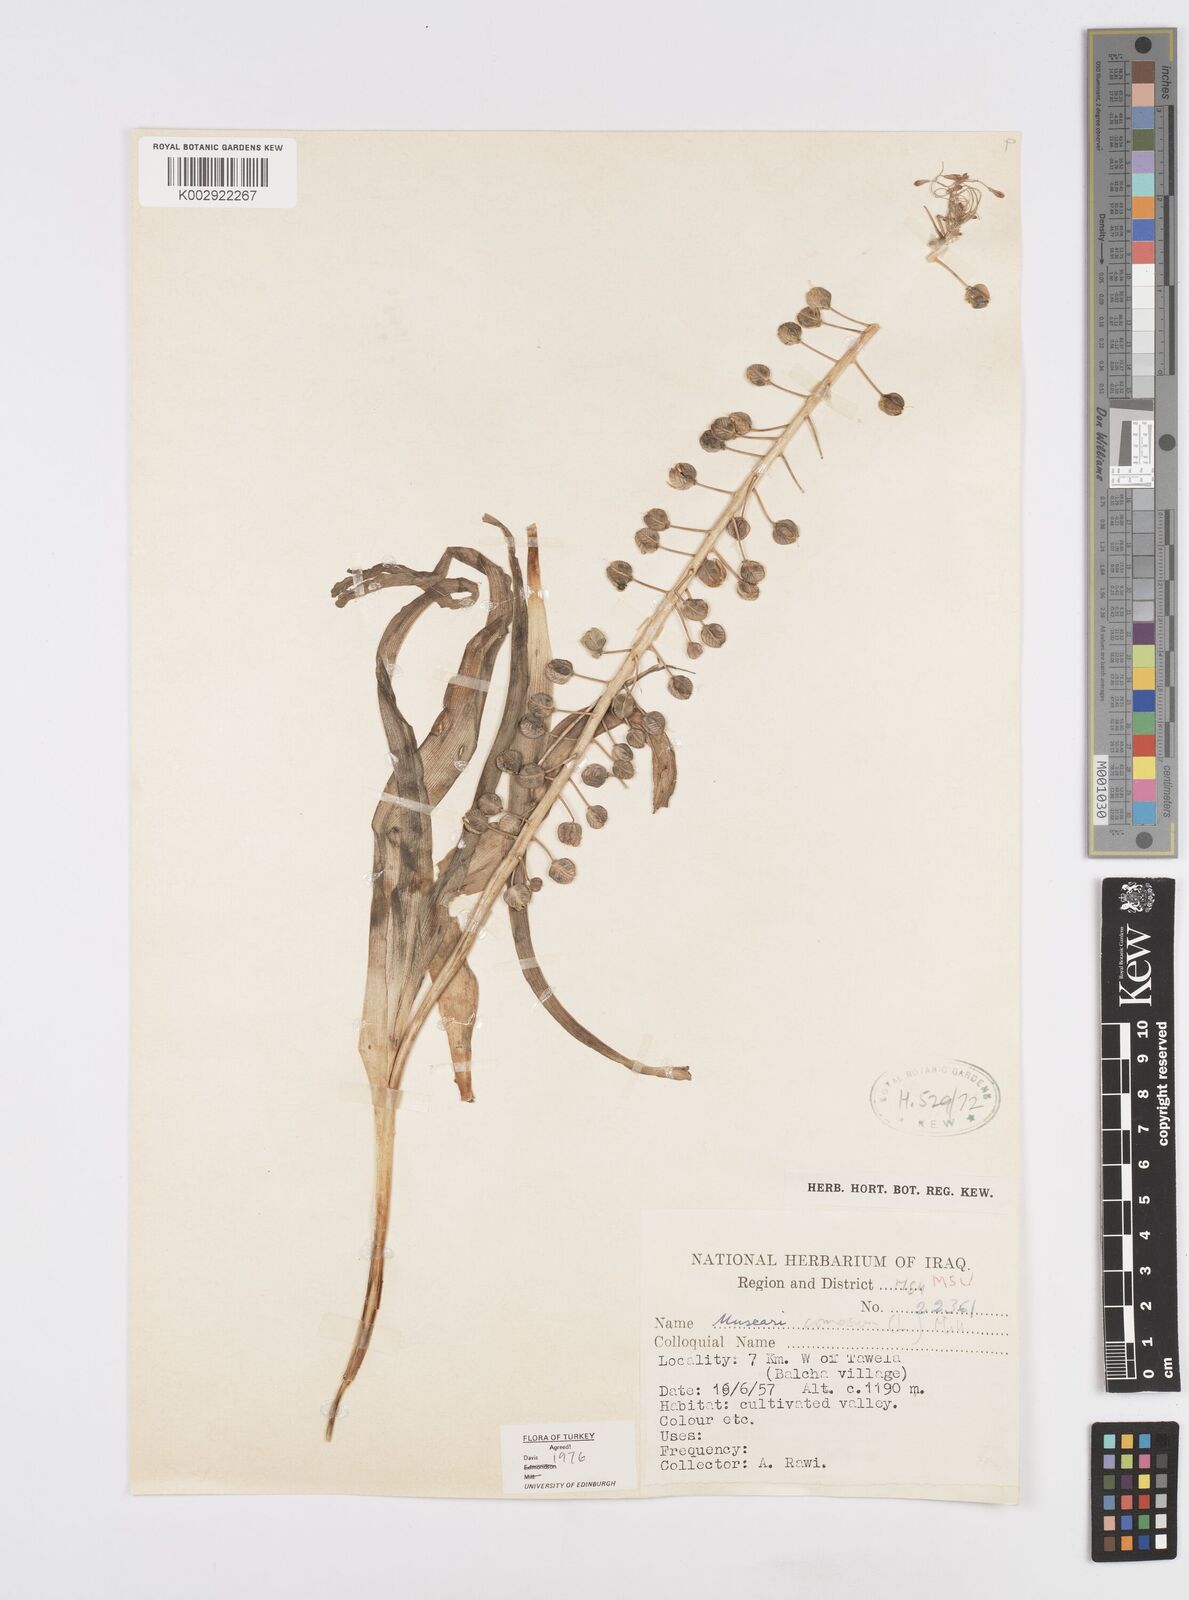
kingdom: Plantae
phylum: Tracheophyta
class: Liliopsida
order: Asparagales
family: Asparagaceae
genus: Muscari
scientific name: Muscari comosum
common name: Tassel hyacinth
